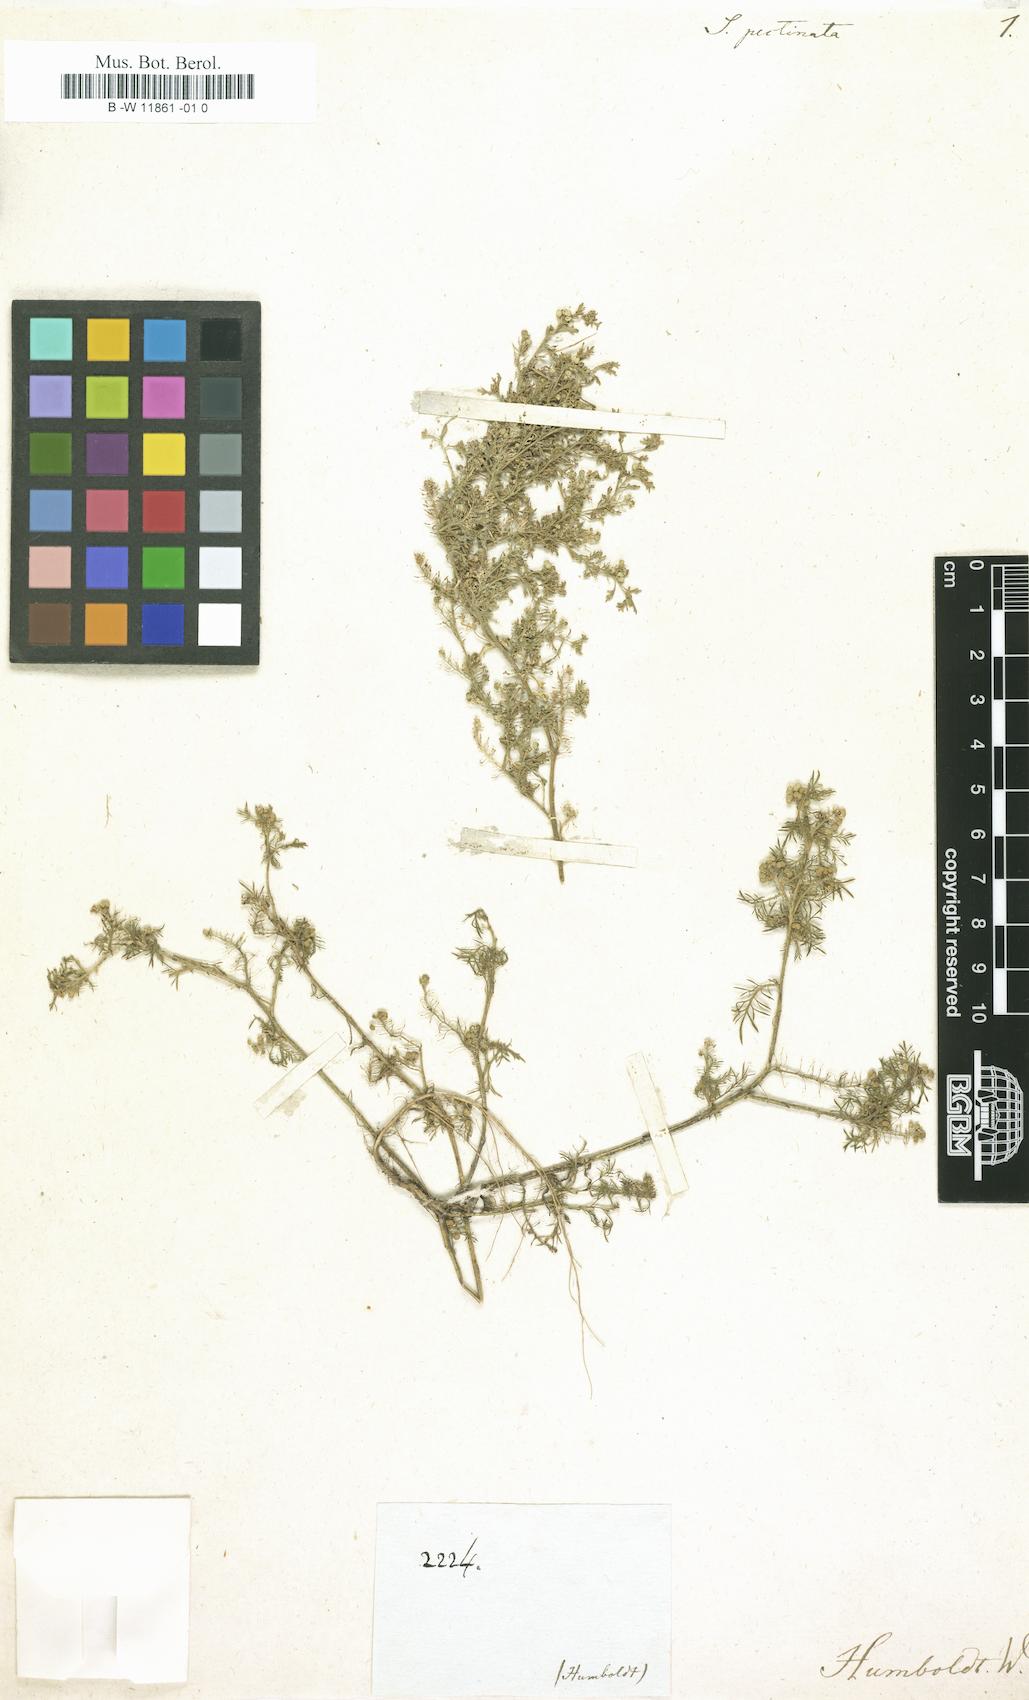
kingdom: Plantae
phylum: Tracheophyta
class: Magnoliopsida
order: Brassicales
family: Brassicaceae
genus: Lepidium
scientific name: Lepidium
